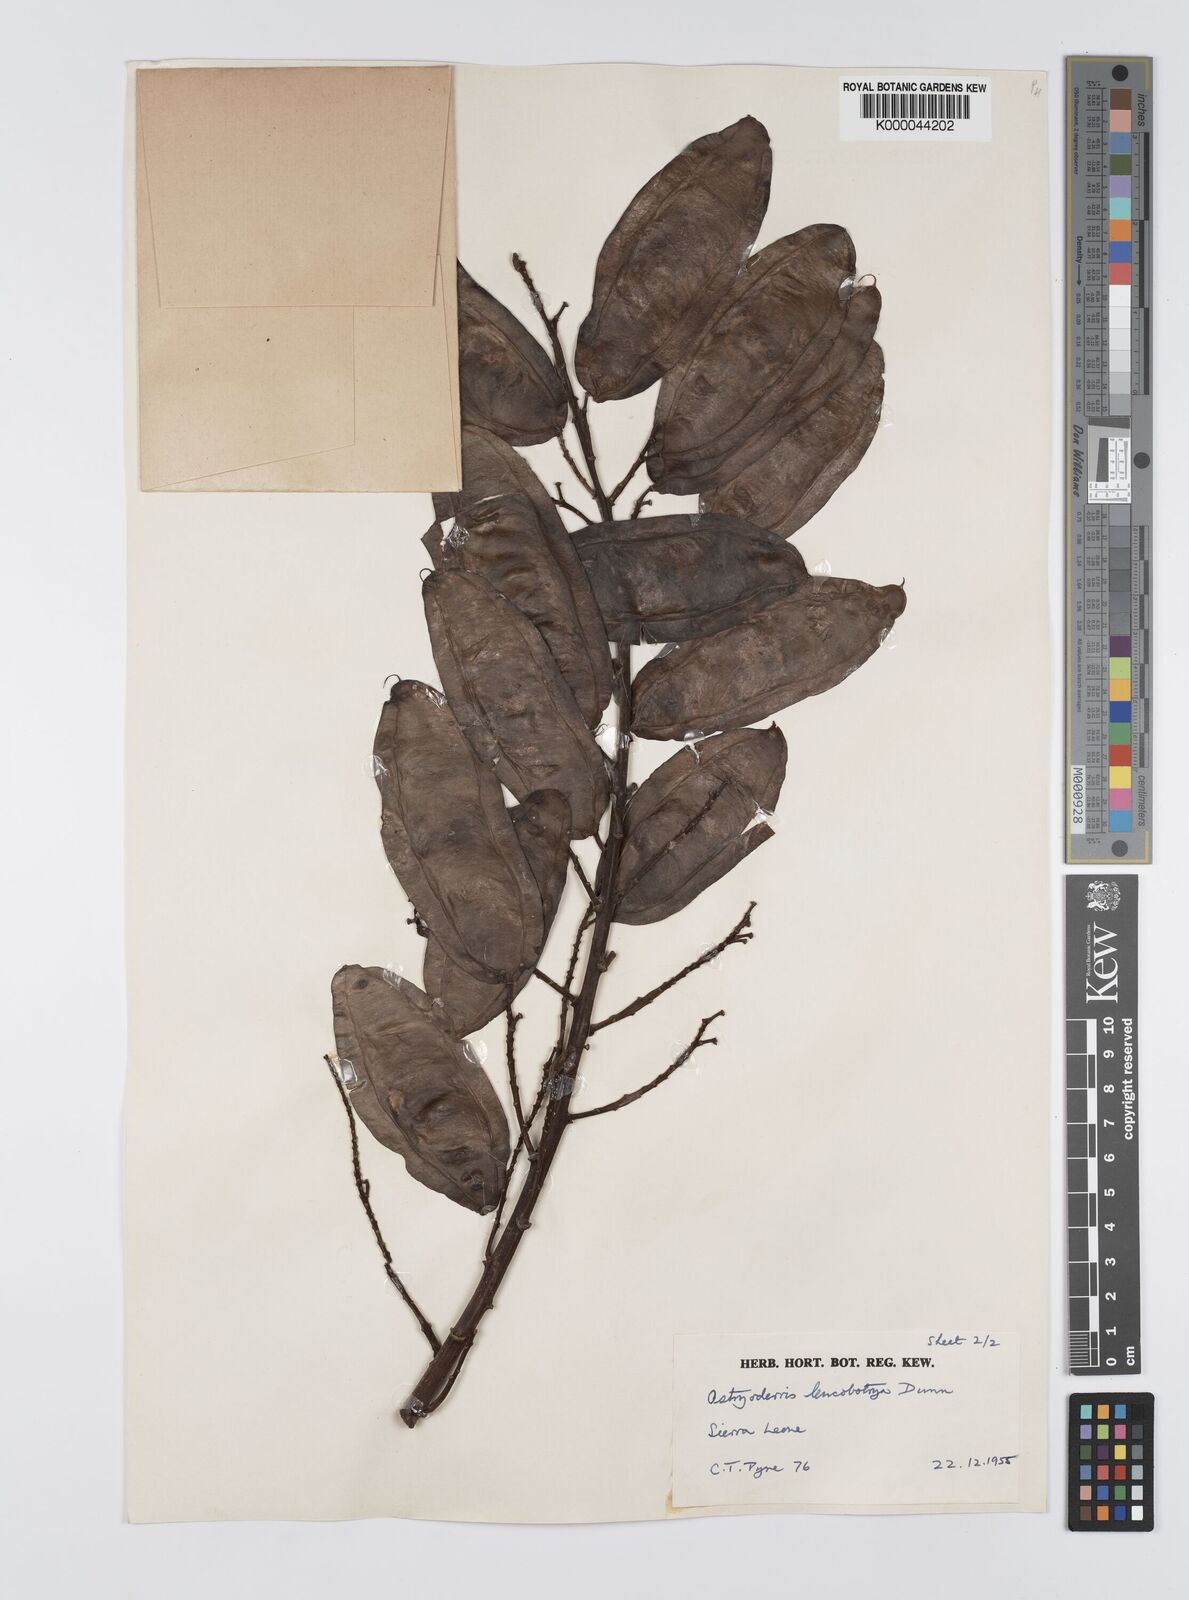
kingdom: Plantae
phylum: Tracheophyta
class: Magnoliopsida
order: Fabales
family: Fabaceae
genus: Aganope
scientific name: Aganope leucobotrya
